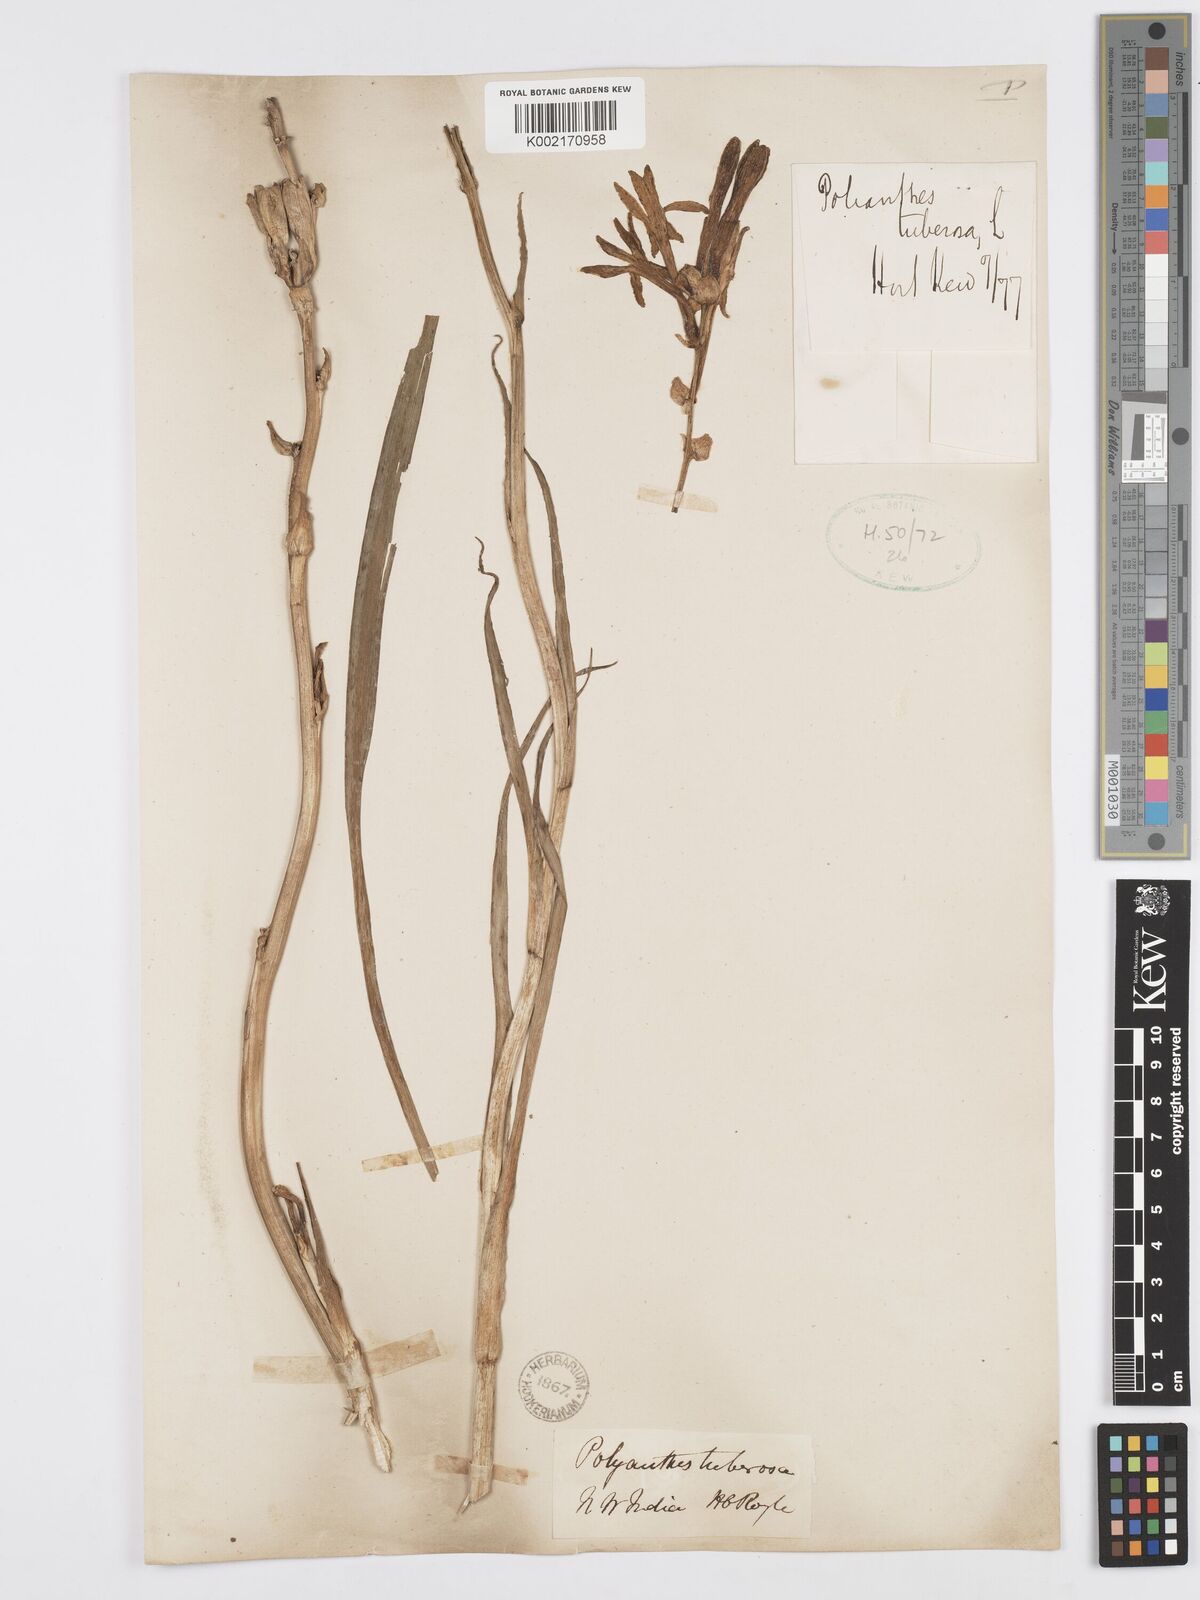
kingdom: Plantae
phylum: Tracheophyta
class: Liliopsida
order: Asparagales
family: Asparagaceae
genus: Agave
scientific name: Agave amica
